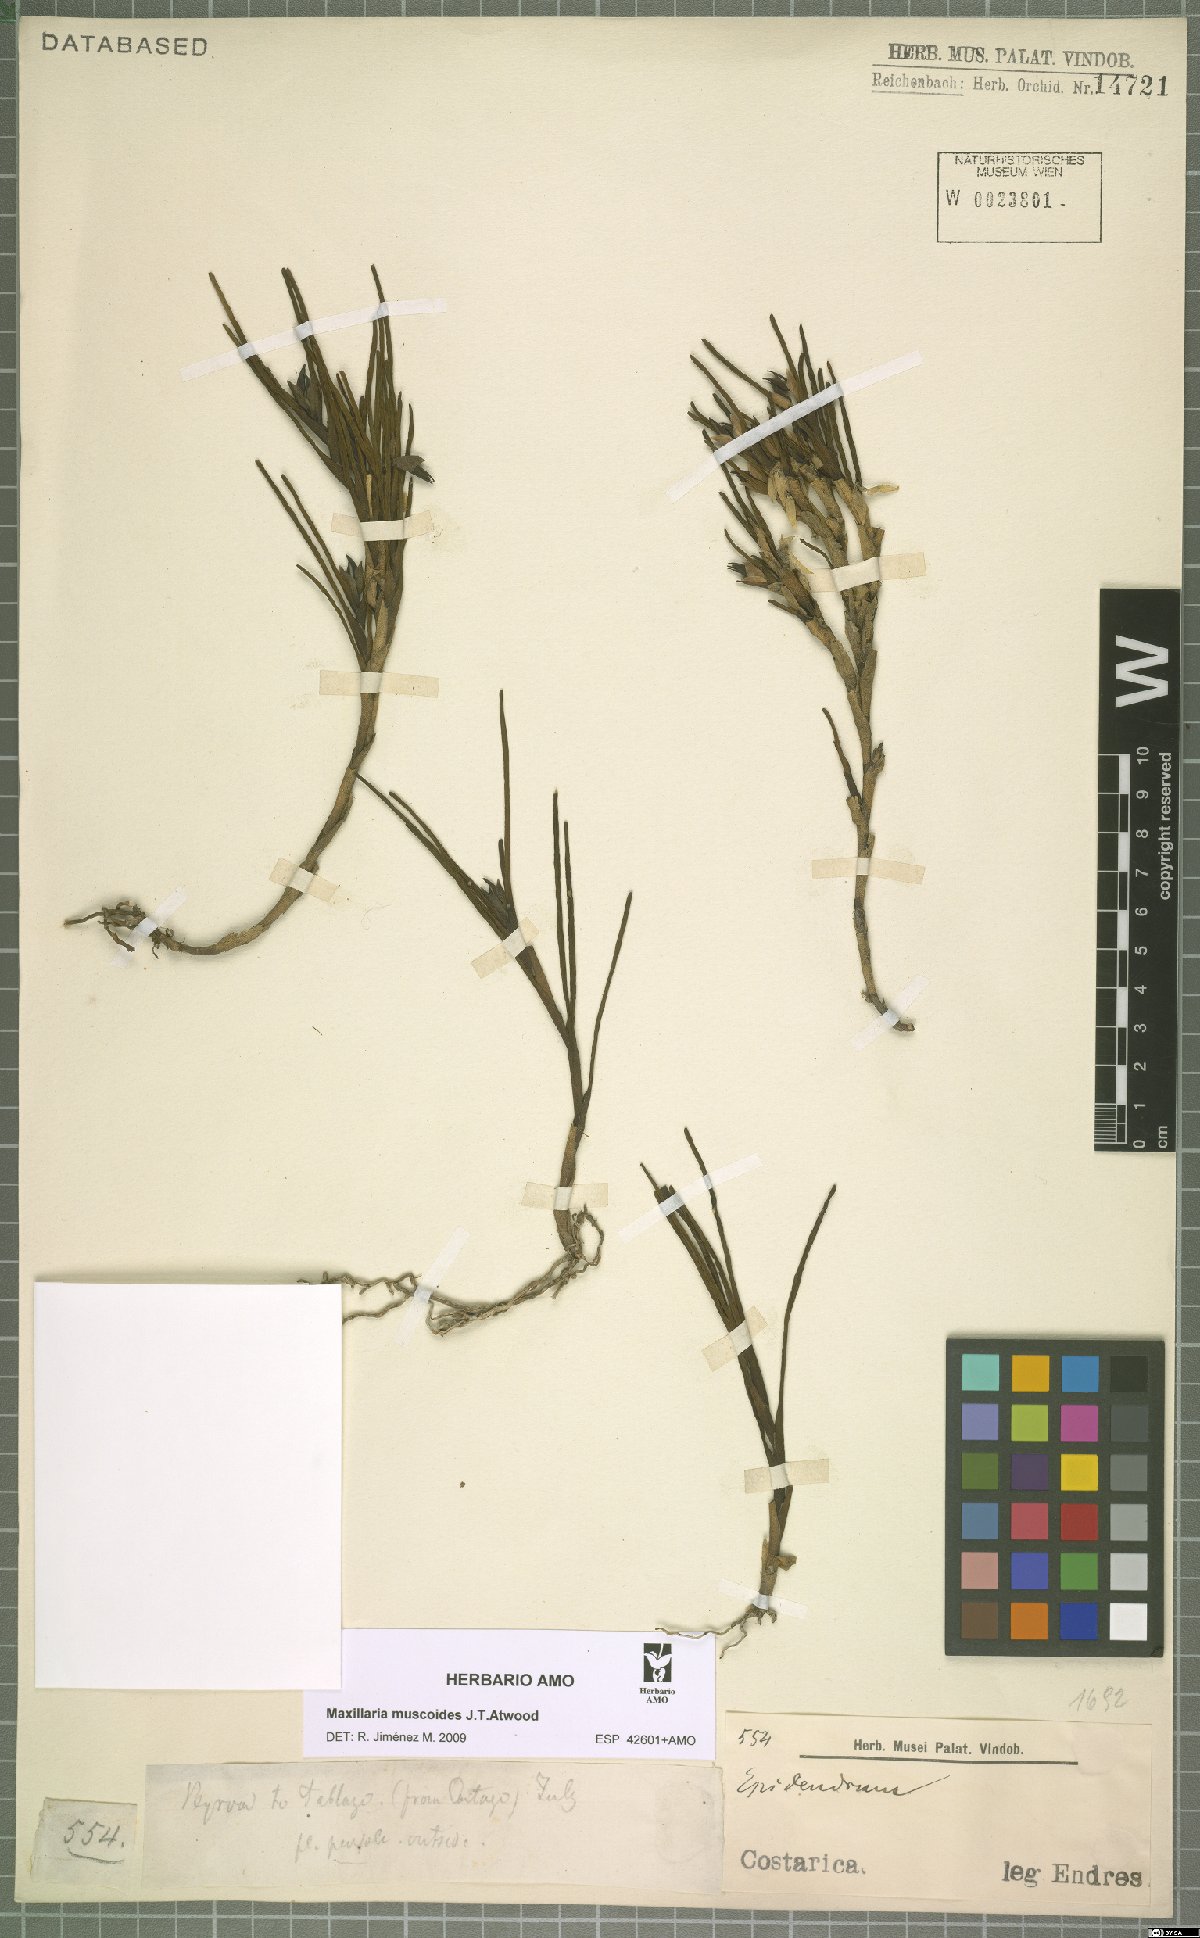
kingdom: Plantae
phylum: Tracheophyta
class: Liliopsida
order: Asparagales
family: Orchidaceae
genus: Maxillaria
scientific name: Maxillaria muscoides
